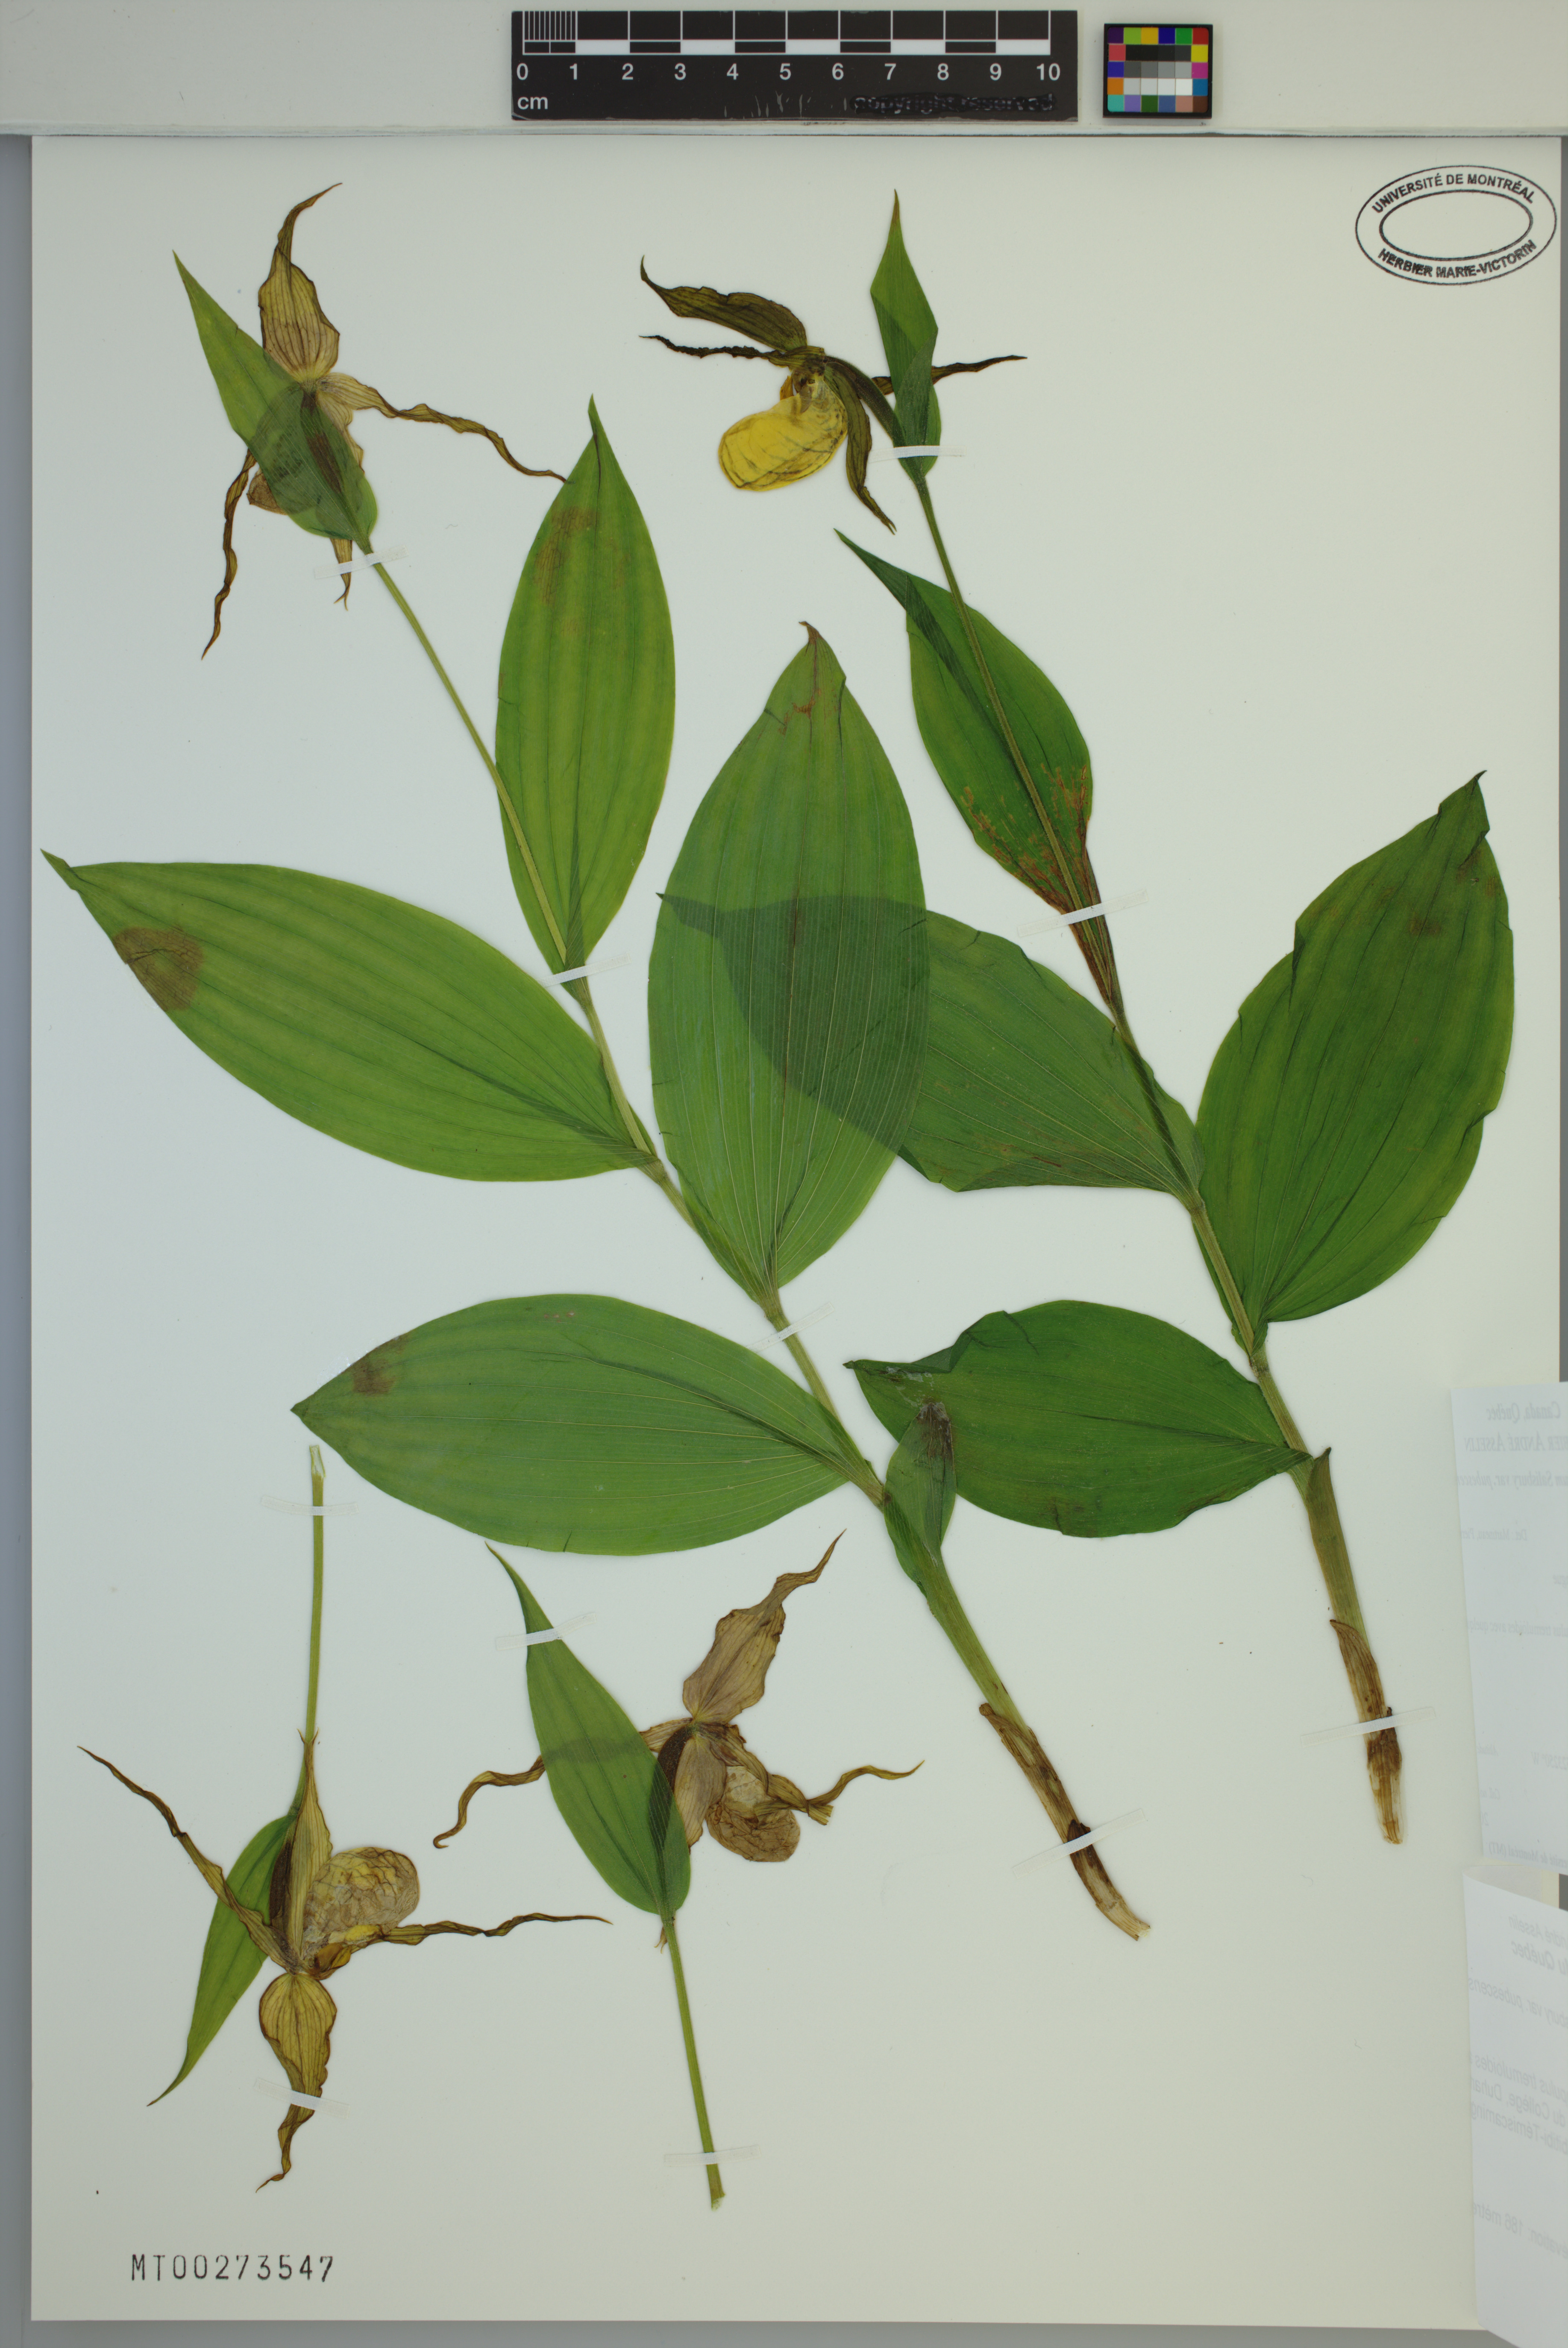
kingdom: Plantae
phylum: Tracheophyta
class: Liliopsida
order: Asparagales
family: Orchidaceae
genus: Cypripedium
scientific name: Cypripedium parviflorum
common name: American yellow lady's-slipper
